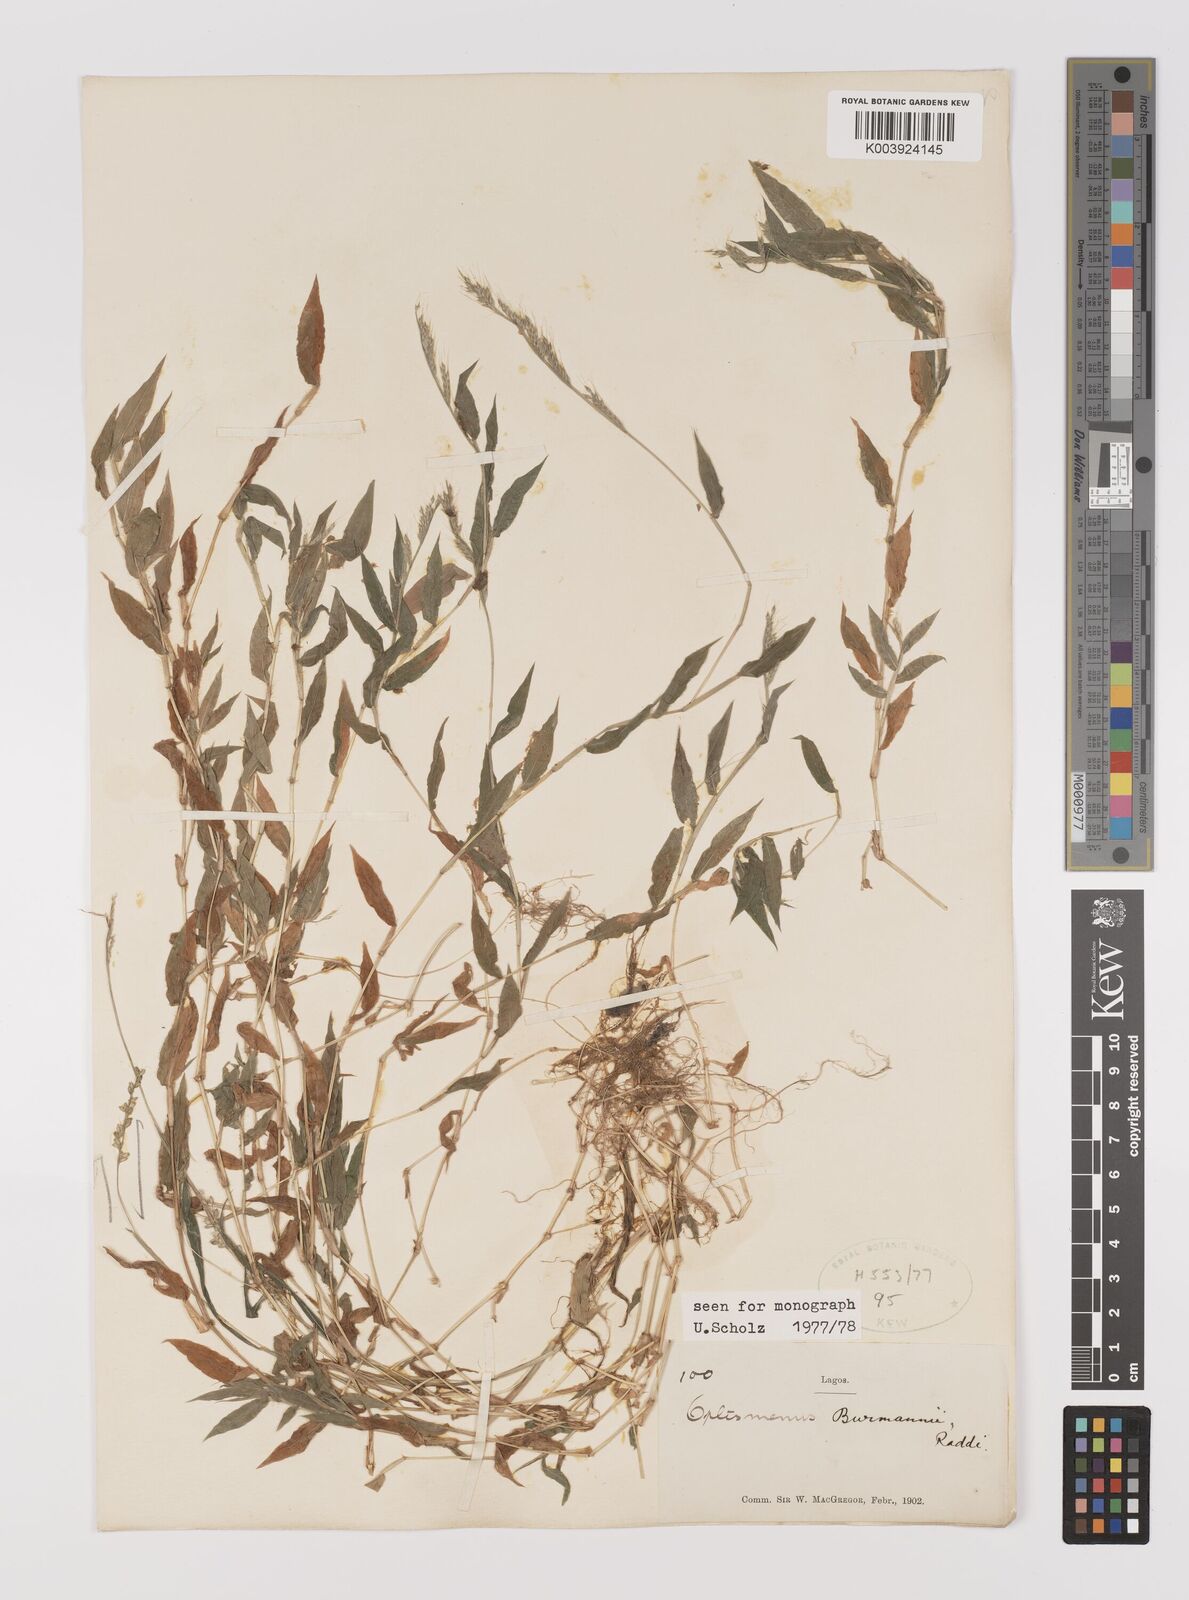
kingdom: Plantae
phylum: Tracheophyta
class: Liliopsida
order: Poales
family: Poaceae
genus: Oplismenus
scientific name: Oplismenus burmanni
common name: Burmann's basketgrass
